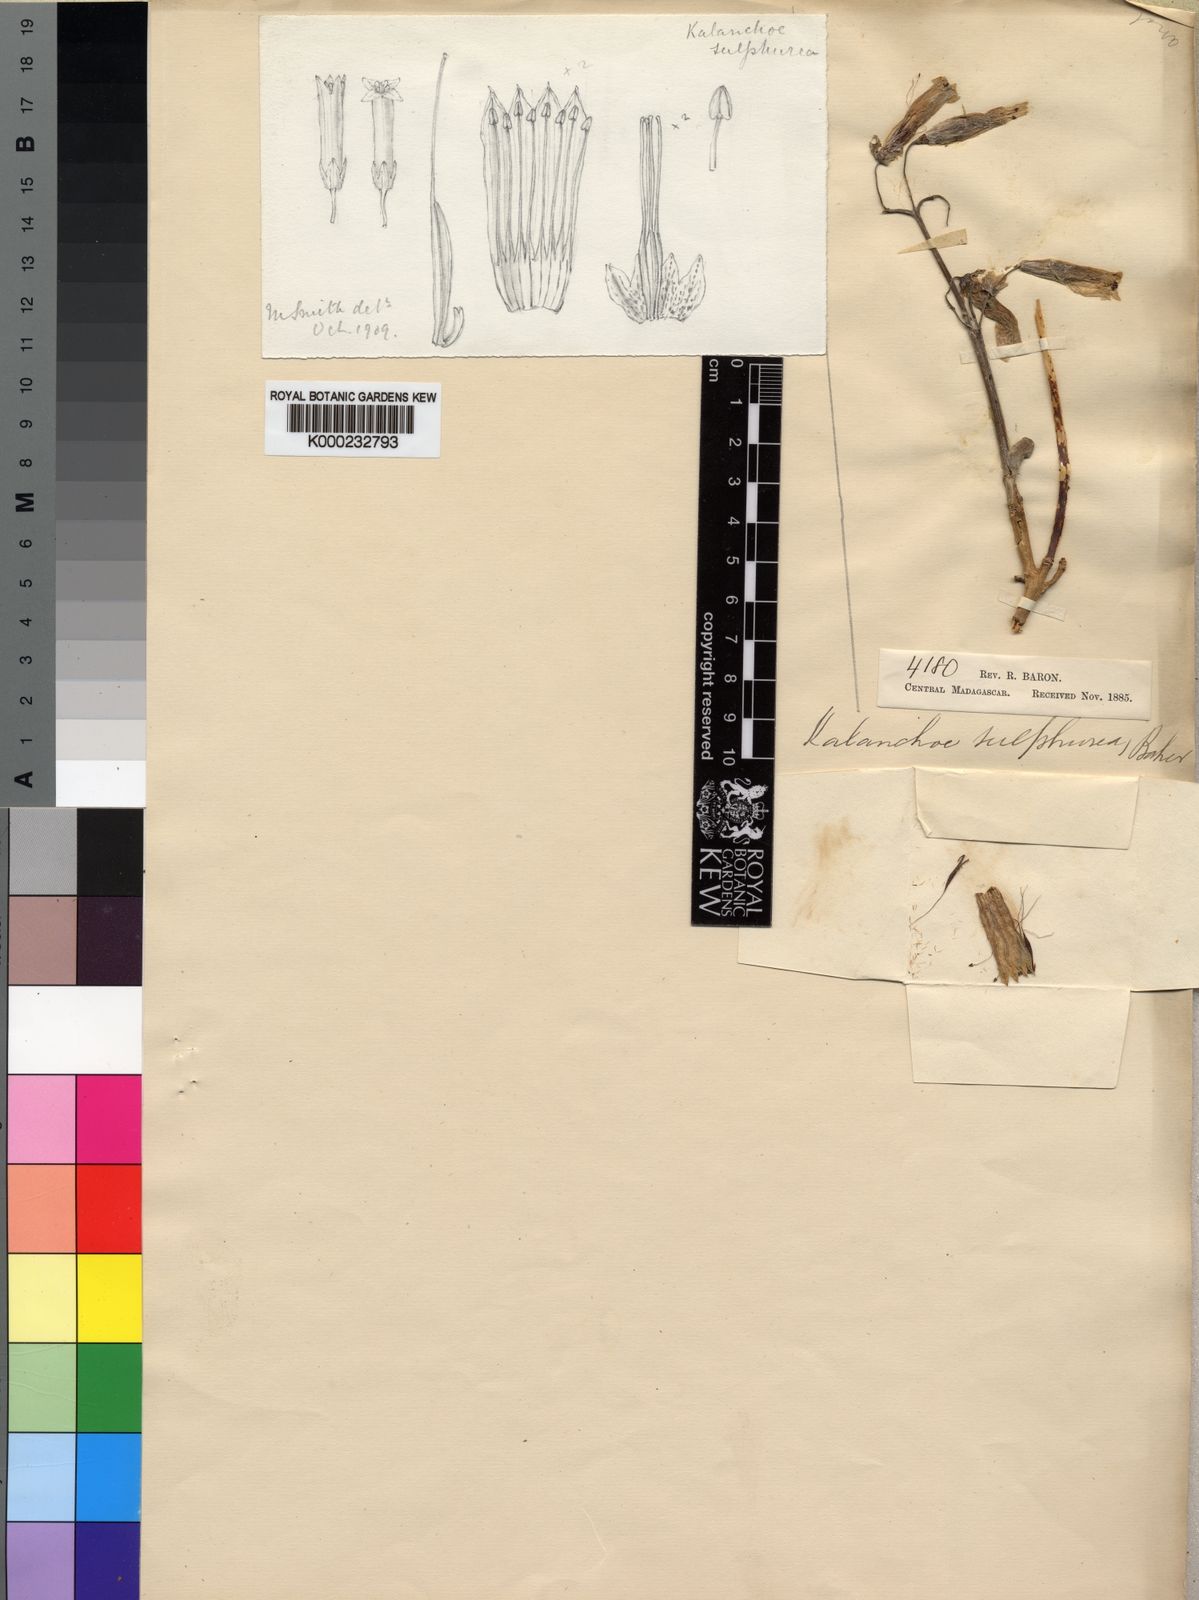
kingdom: Plantae
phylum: Tracheophyta
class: Magnoliopsida
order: Saxifragales
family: Crassulaceae
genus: Kalanchoe
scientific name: Kalanchoe porphyrocalyx
